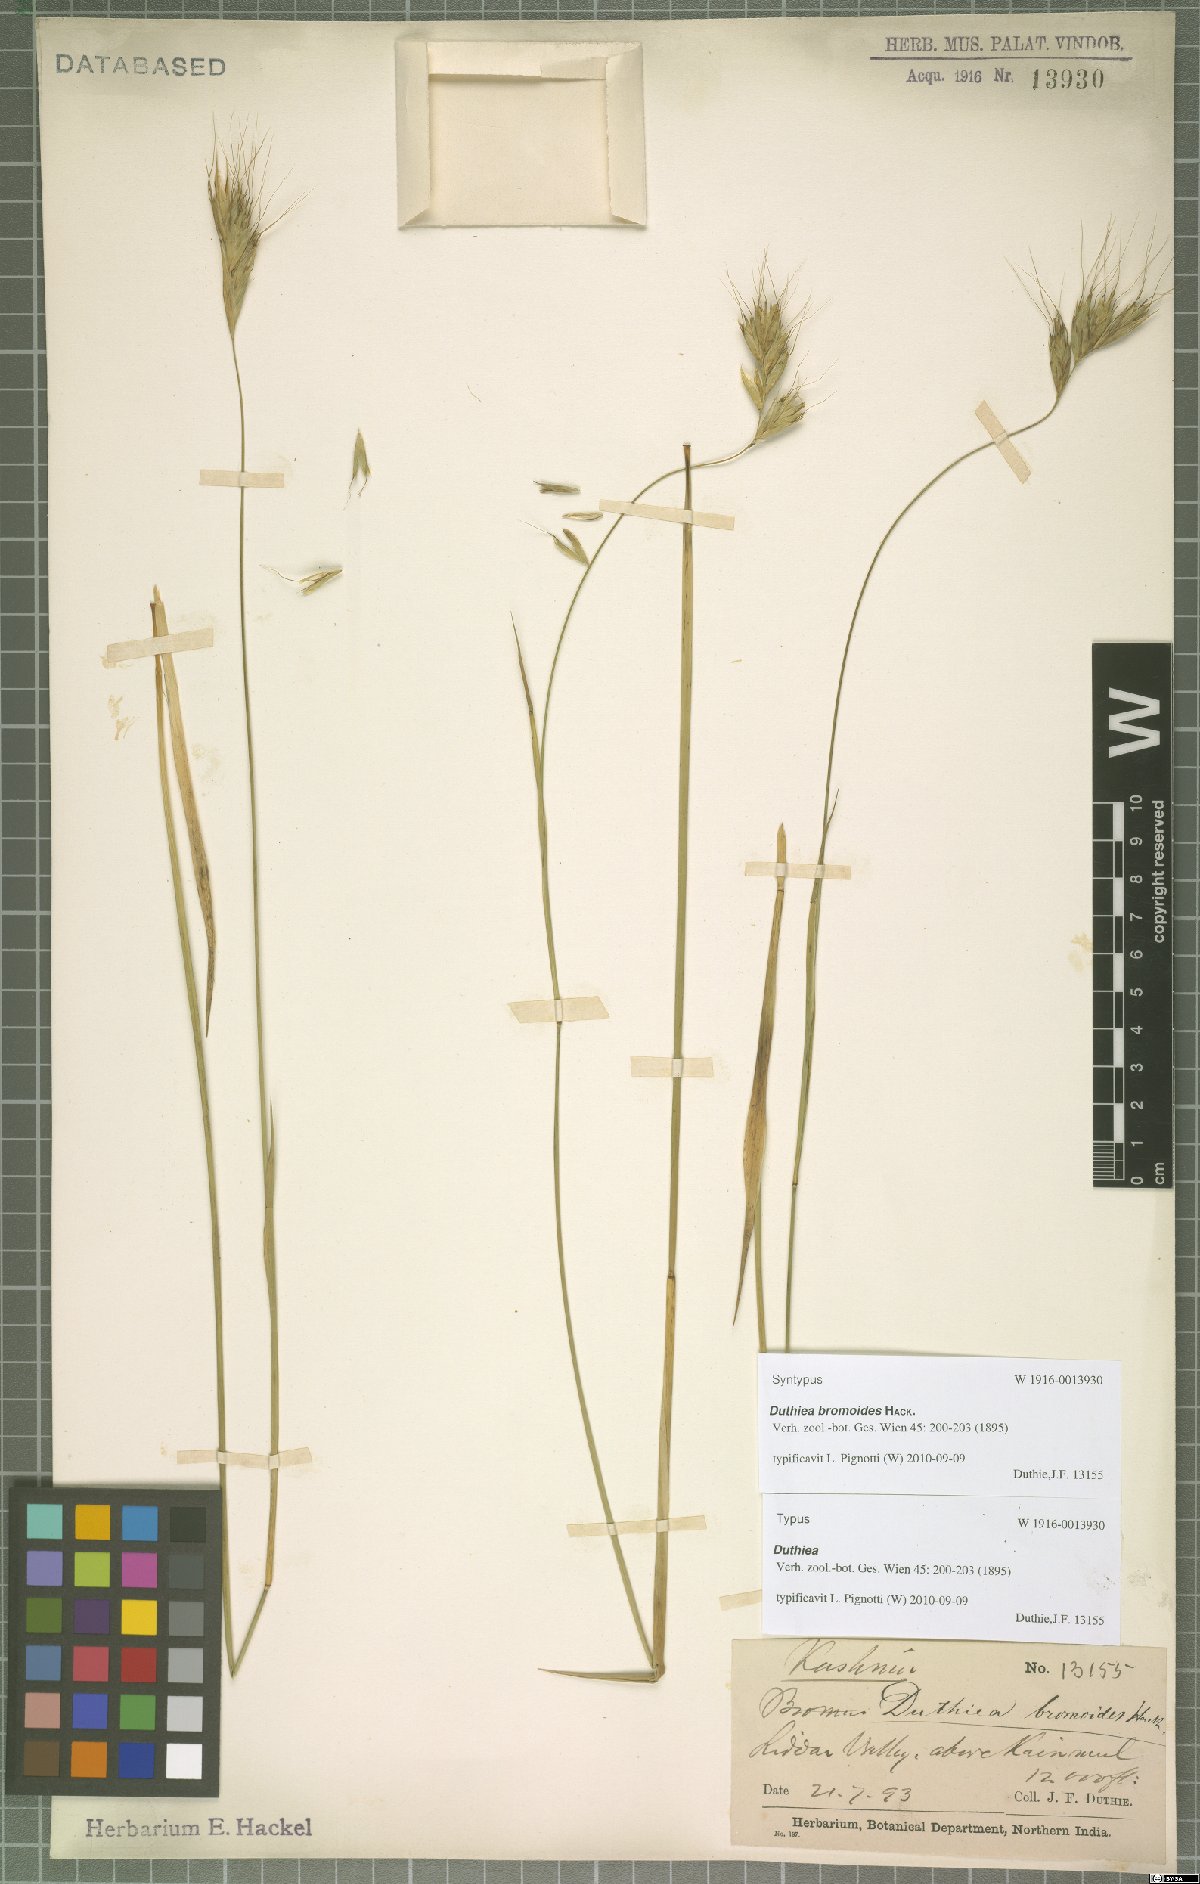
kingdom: Plantae
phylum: Tracheophyta
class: Liliopsida
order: Poales
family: Poaceae
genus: Duthiea
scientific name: Duthiea bromoides
